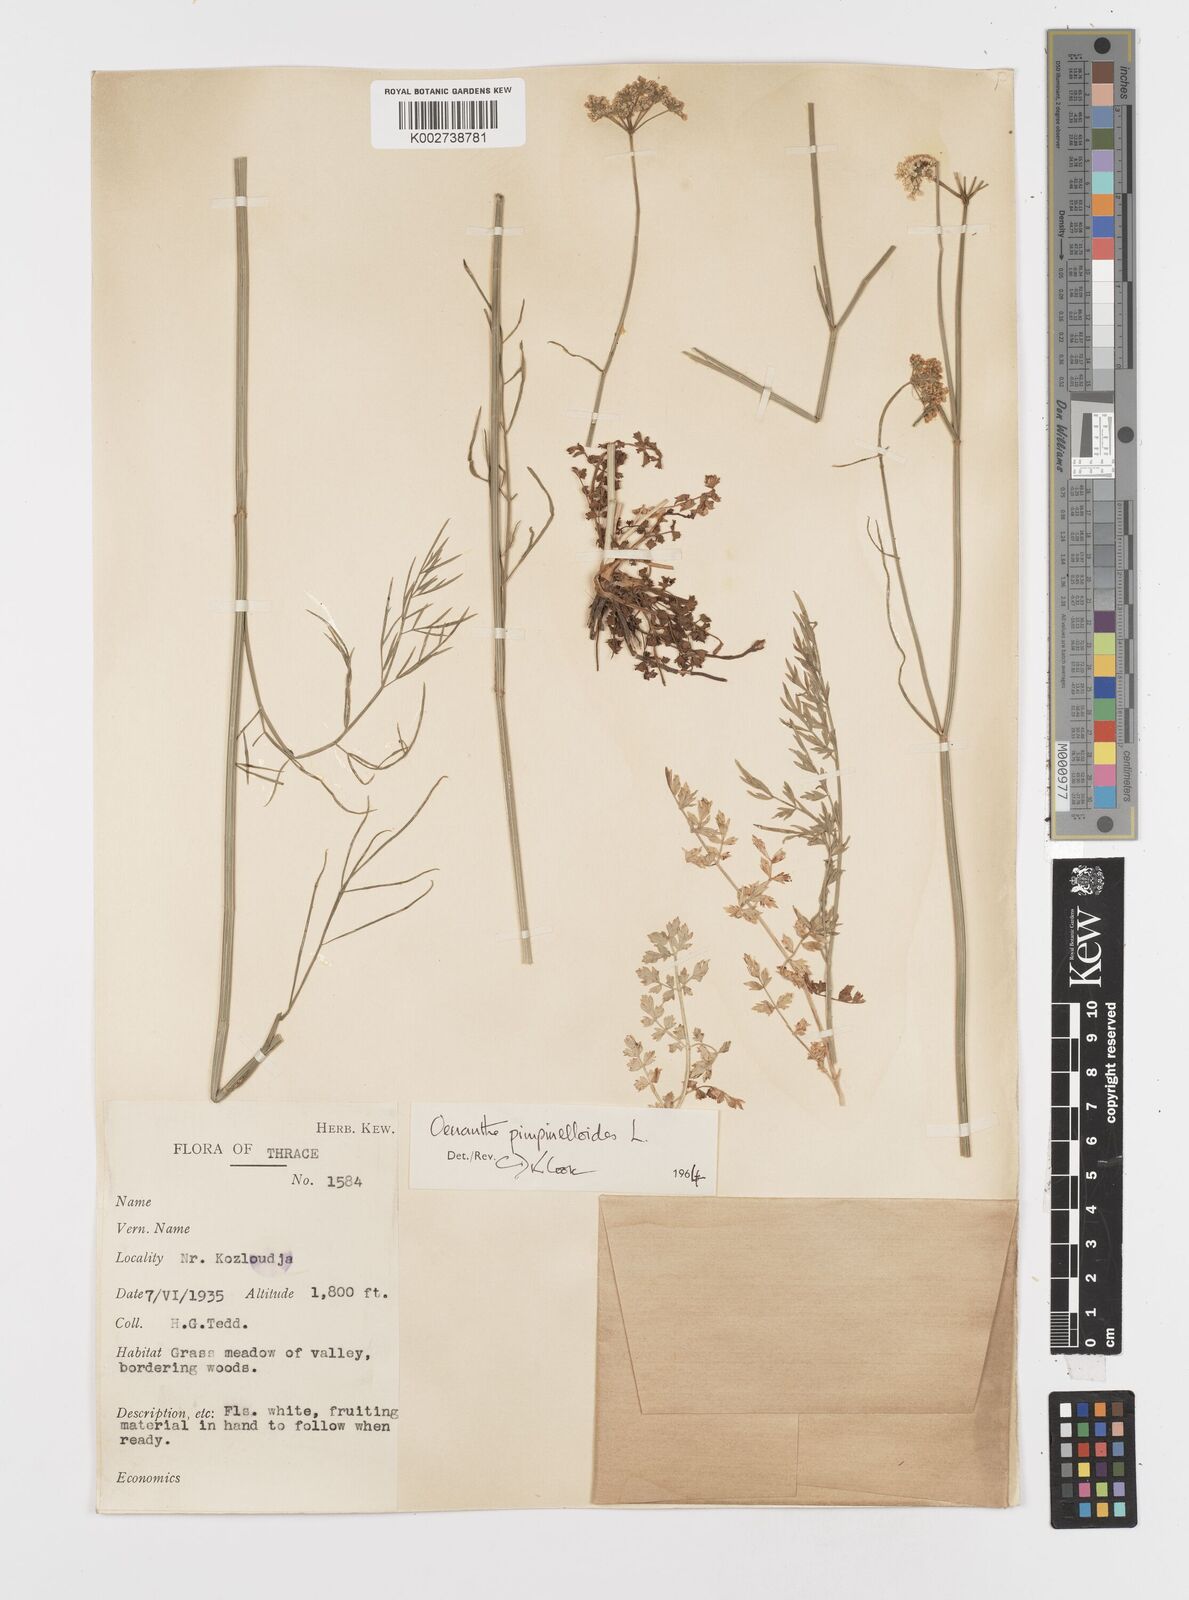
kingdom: Plantae
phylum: Tracheophyta
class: Magnoliopsida
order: Apiales
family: Apiaceae
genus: Oenanthe
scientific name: Oenanthe pimpinelloides
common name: Corky-fruited water-dropwort
